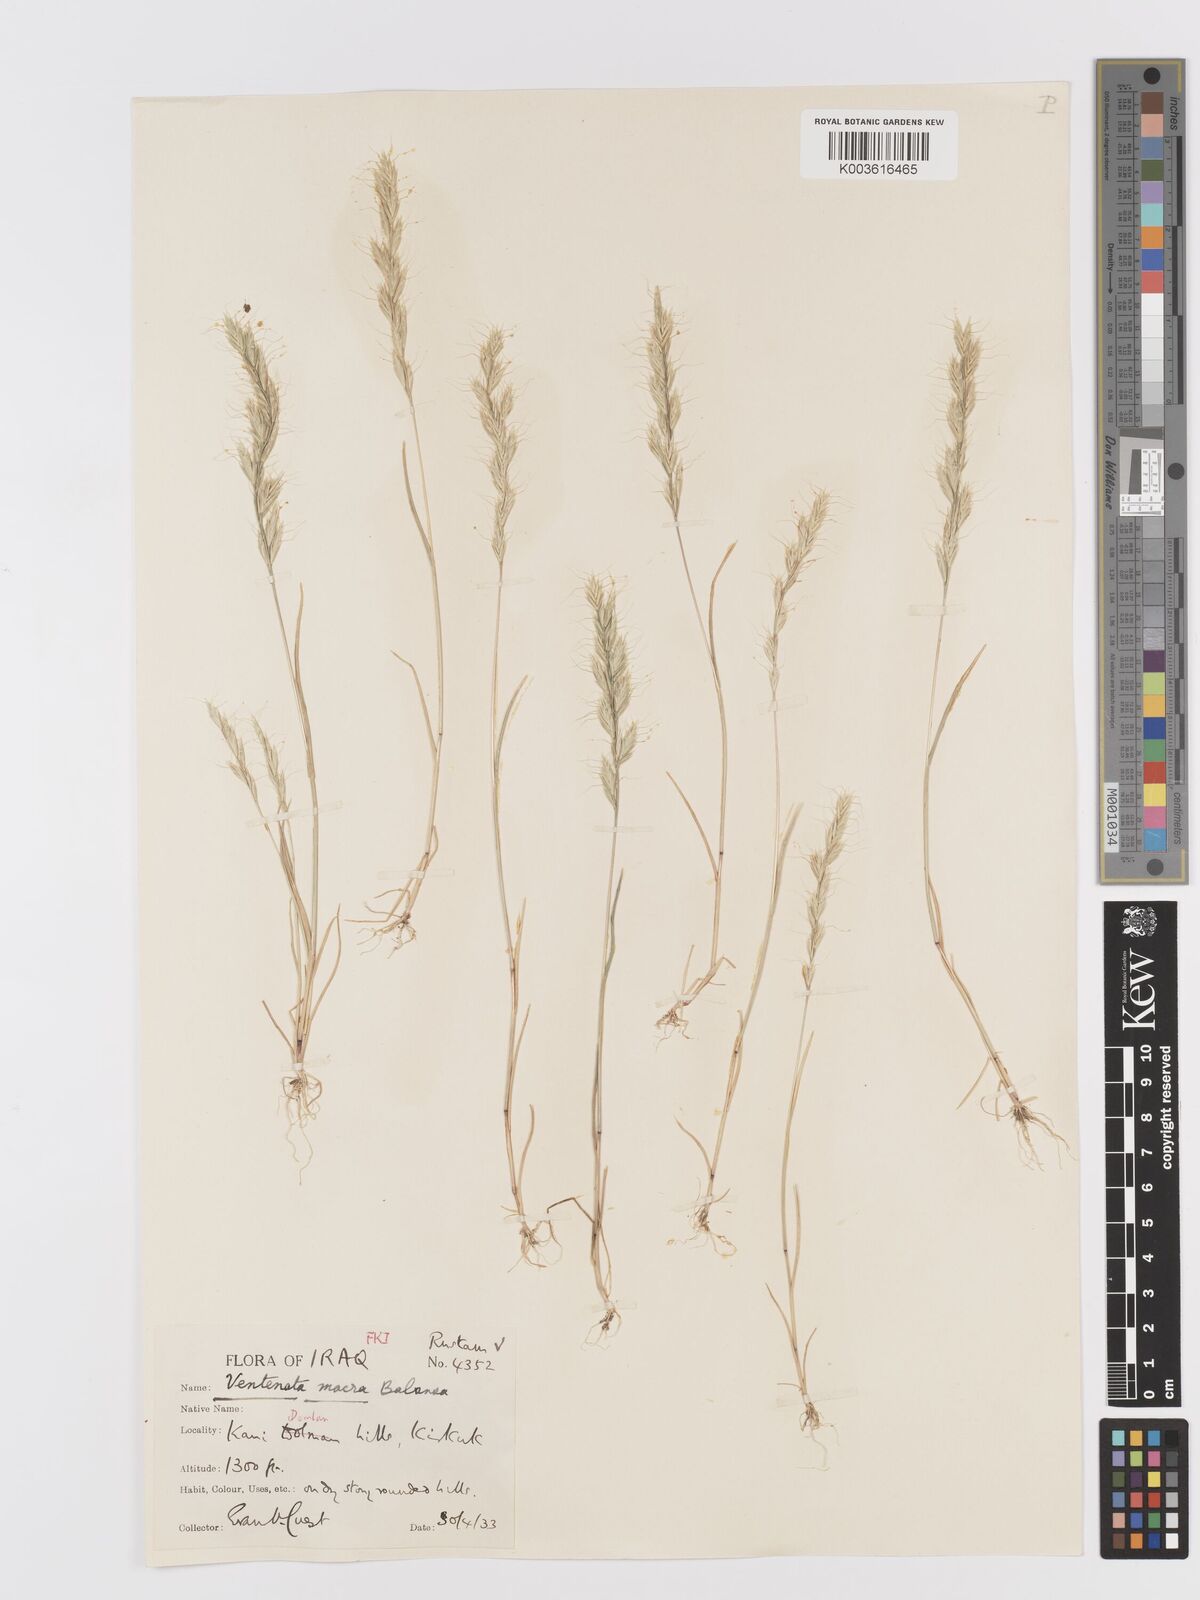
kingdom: Plantae
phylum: Tracheophyta
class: Liliopsida
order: Poales
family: Poaceae
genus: Ventenata
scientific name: Ventenata macra
